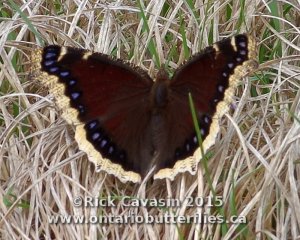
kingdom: Animalia
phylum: Arthropoda
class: Insecta
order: Lepidoptera
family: Nymphalidae
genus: Nymphalis
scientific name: Nymphalis antiopa
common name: Mourning Cloak
